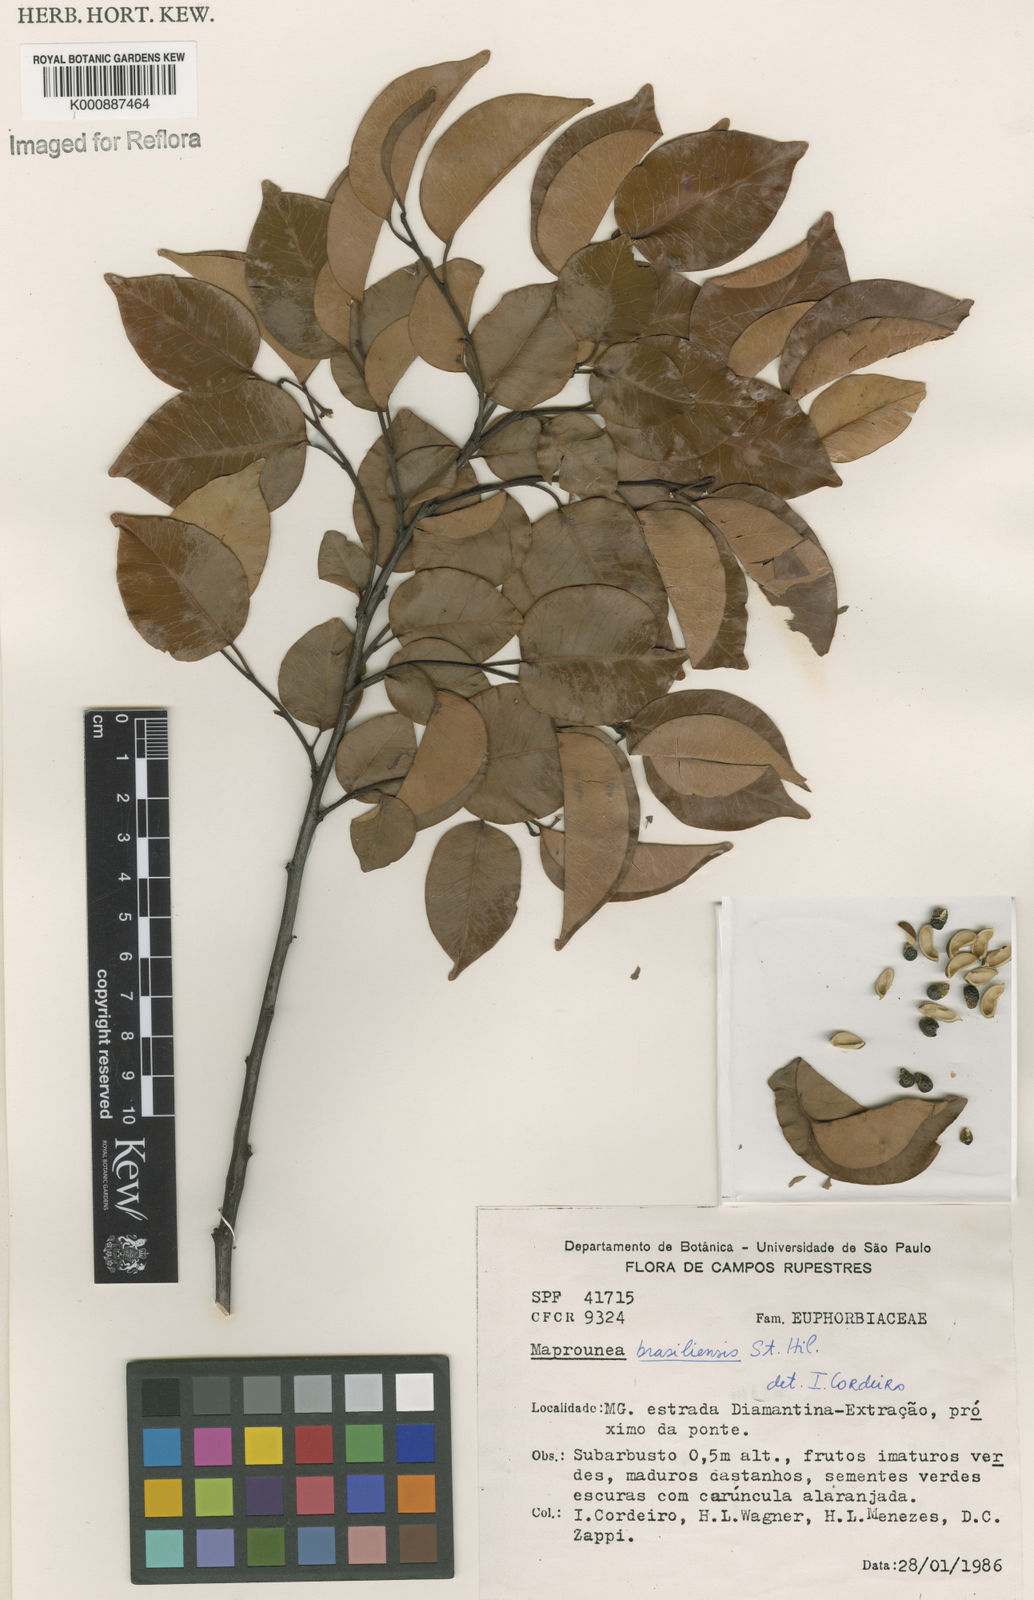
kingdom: Plantae
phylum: Tracheophyta
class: Magnoliopsida
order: Malpighiales
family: Euphorbiaceae
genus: Maprounea
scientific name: Maprounea brasiliensis
